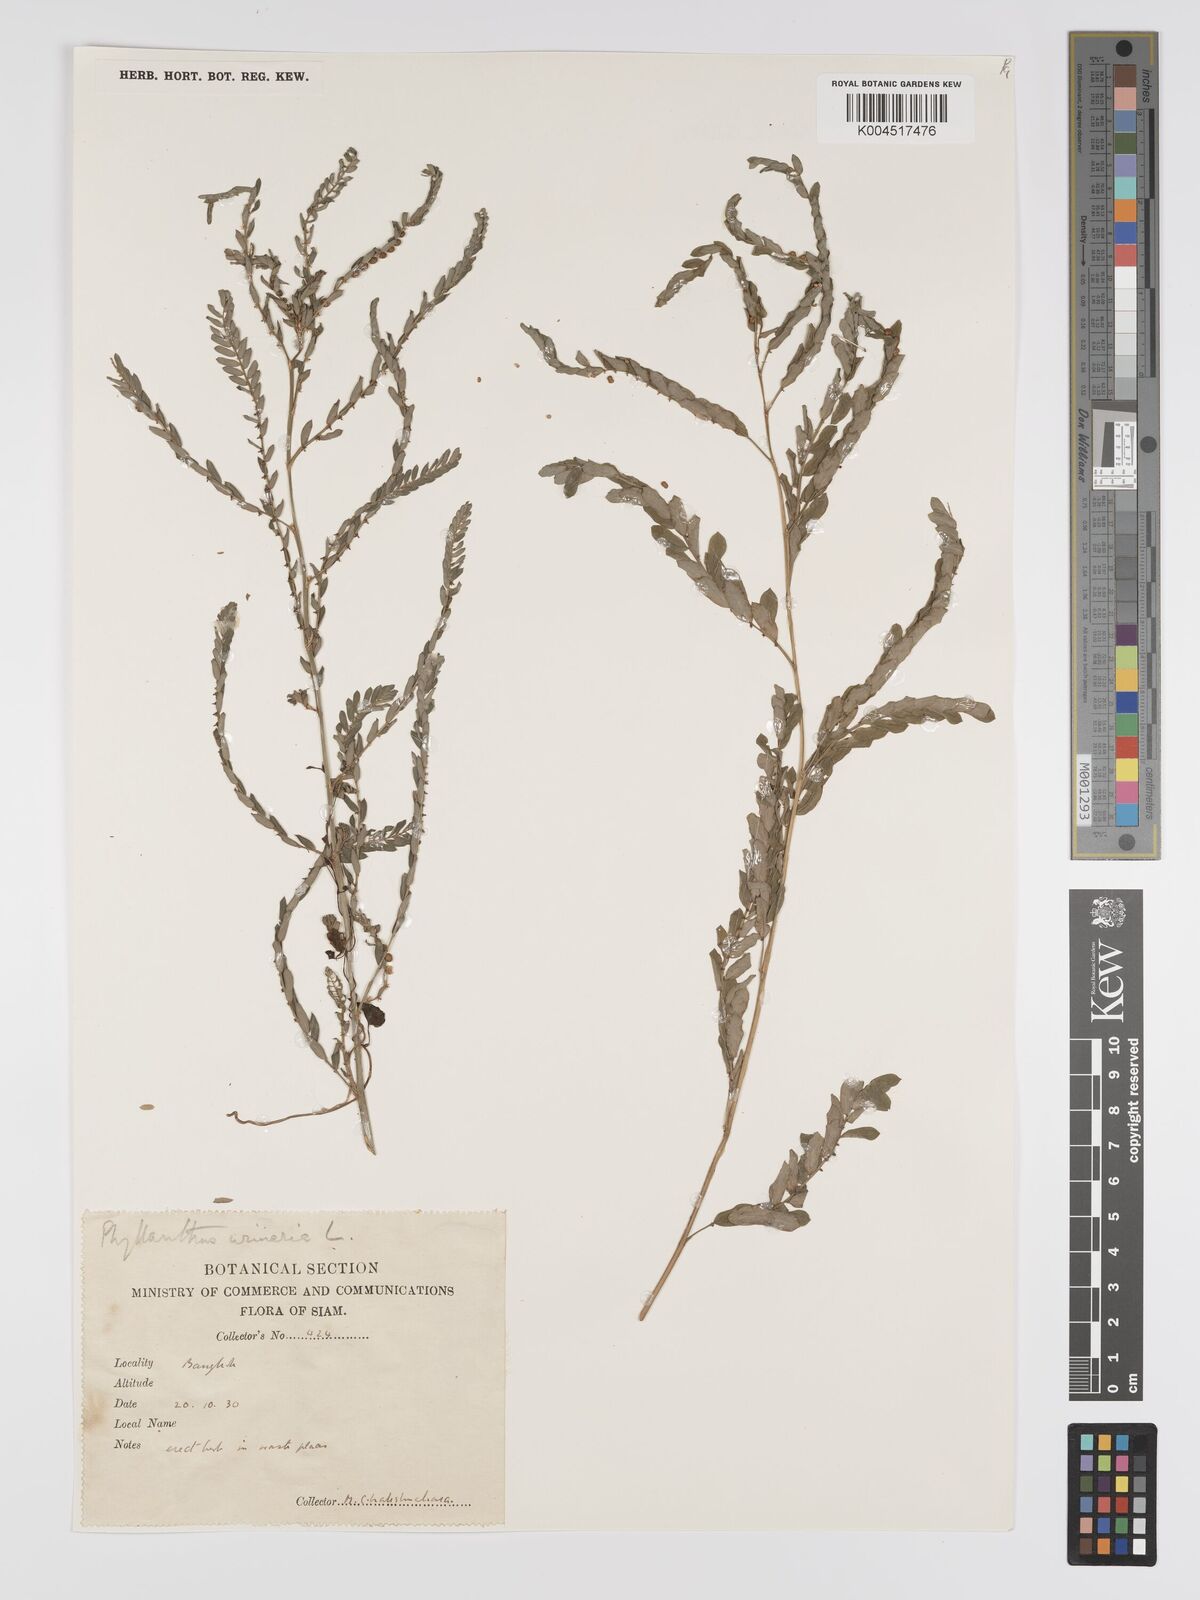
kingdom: Plantae
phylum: Tracheophyta
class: Magnoliopsida
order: Malpighiales
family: Phyllanthaceae
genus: Phyllanthus
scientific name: Phyllanthus urinaria
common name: Chamber bitter
